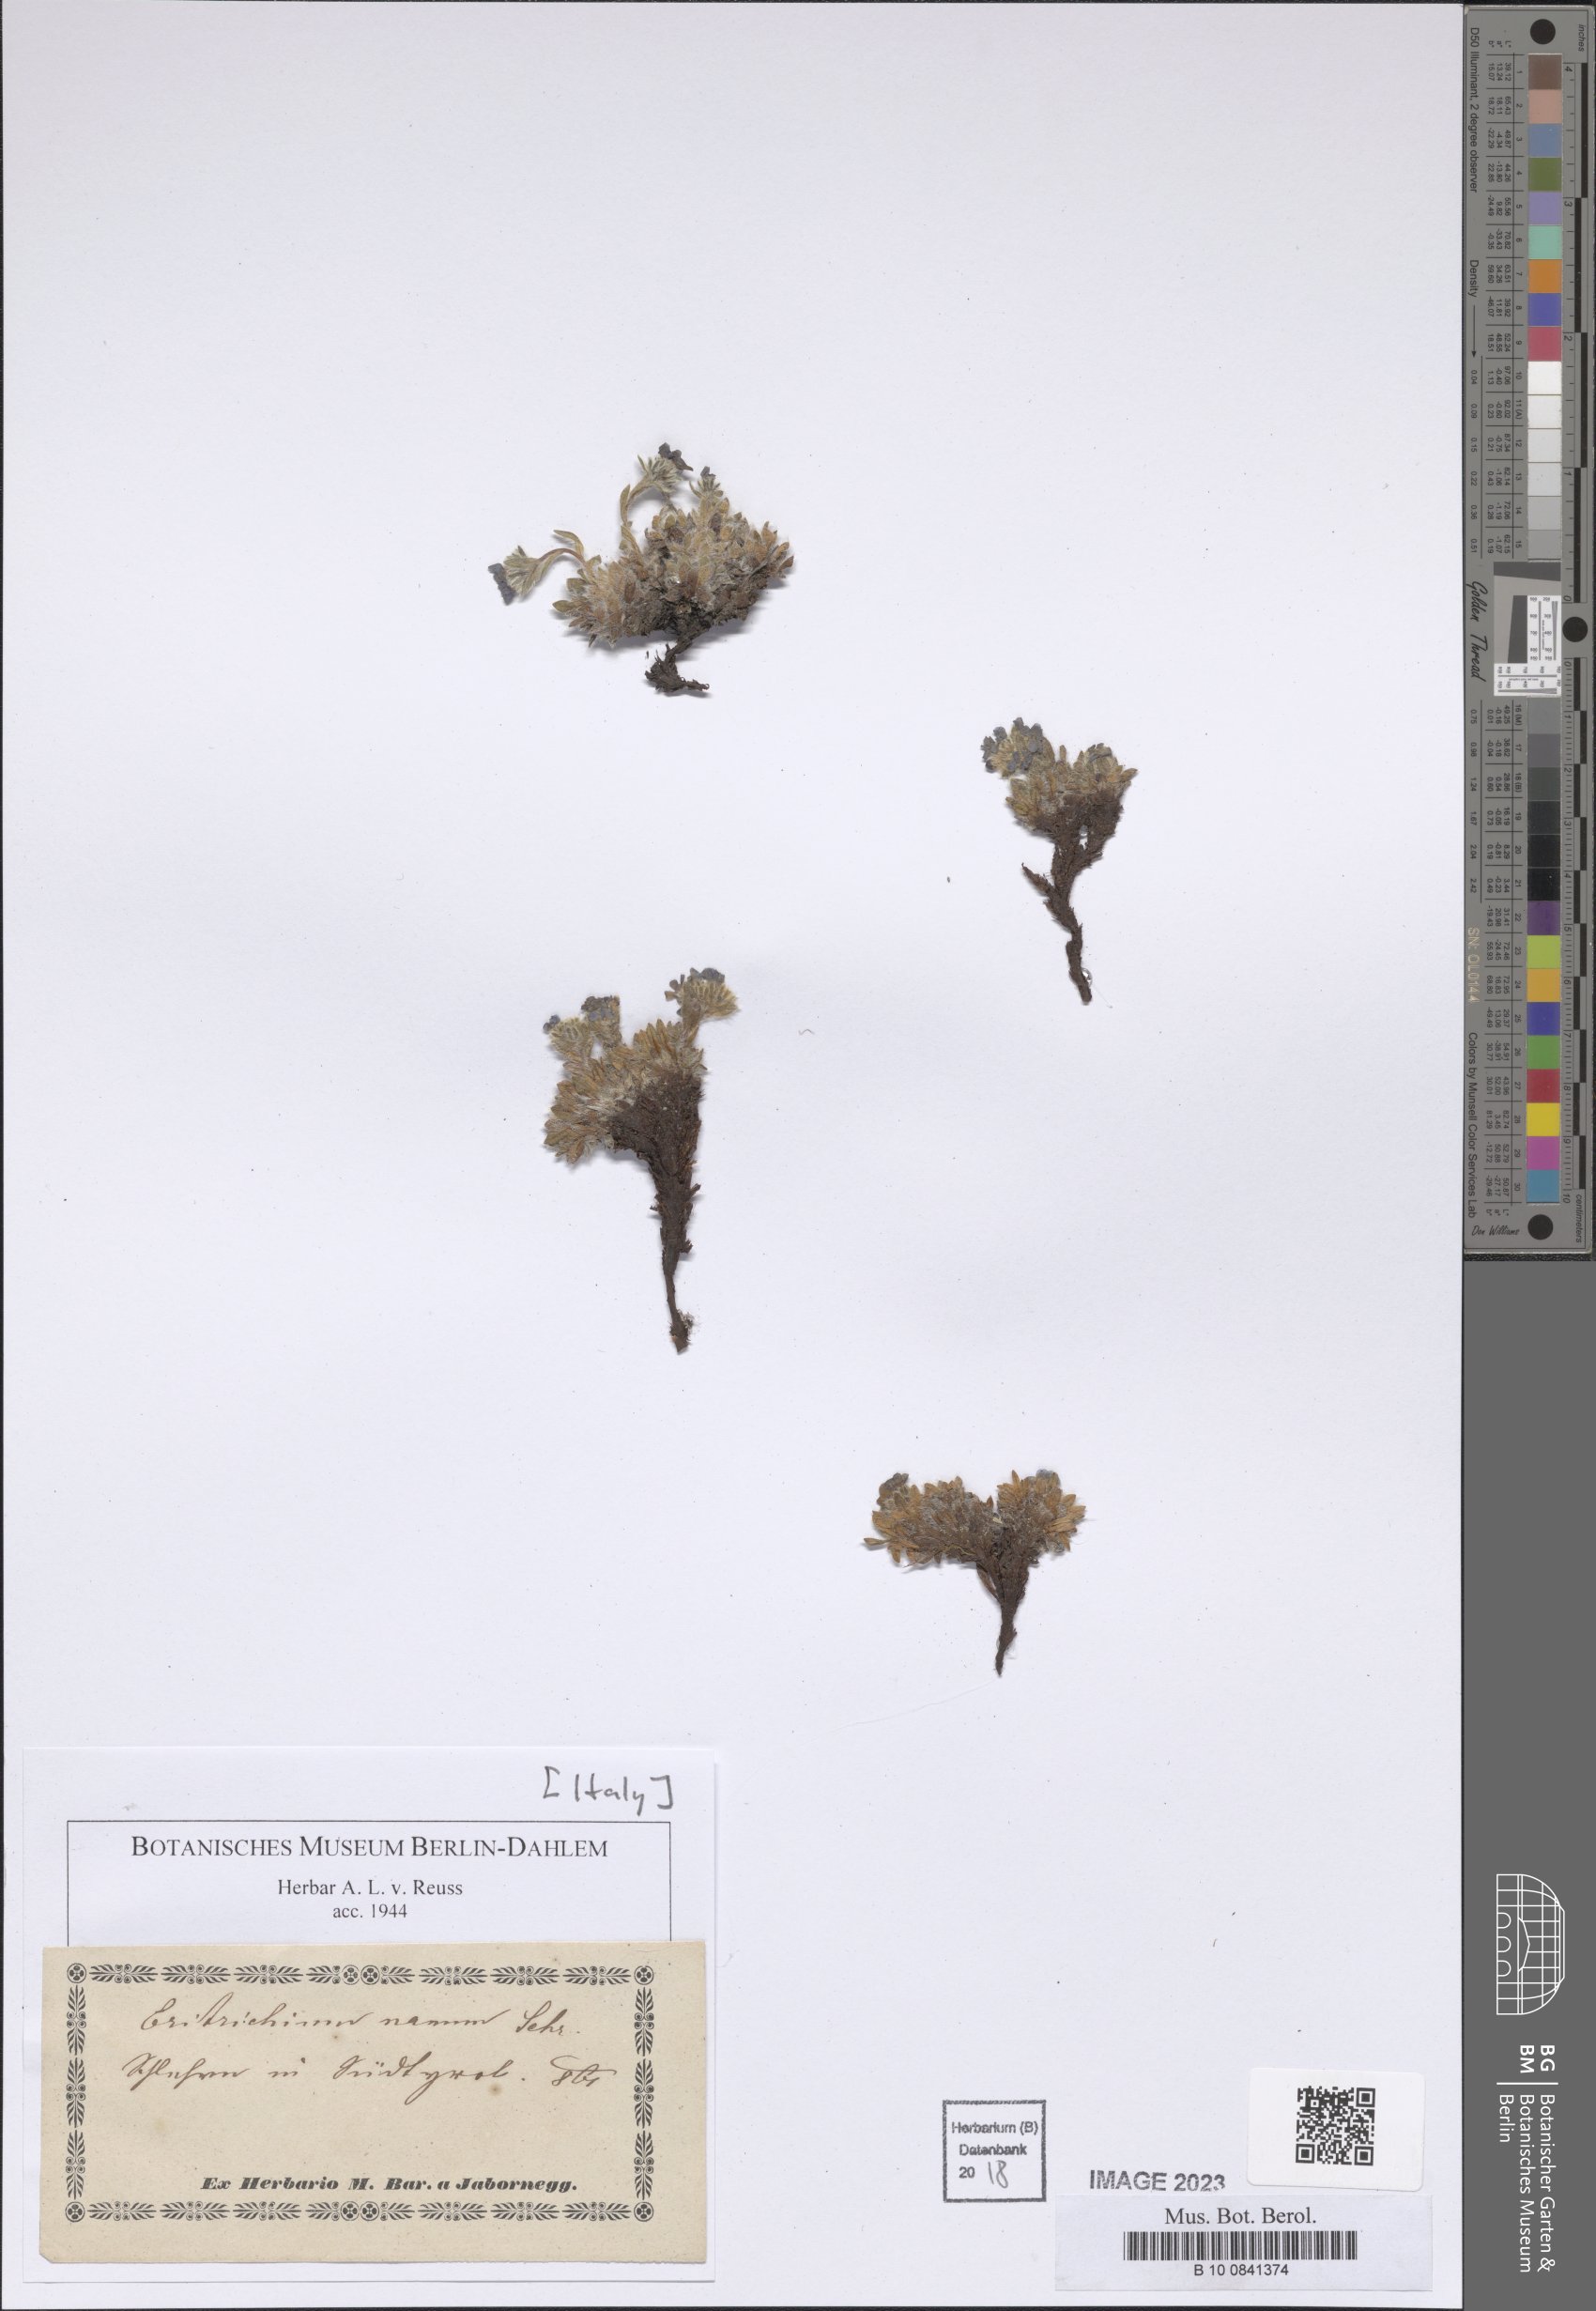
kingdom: Plantae
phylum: Tracheophyta
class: Magnoliopsida
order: Boraginales
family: Boraginaceae
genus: Eritrichium
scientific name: Eritrichium nanum
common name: King-of-the-alps
